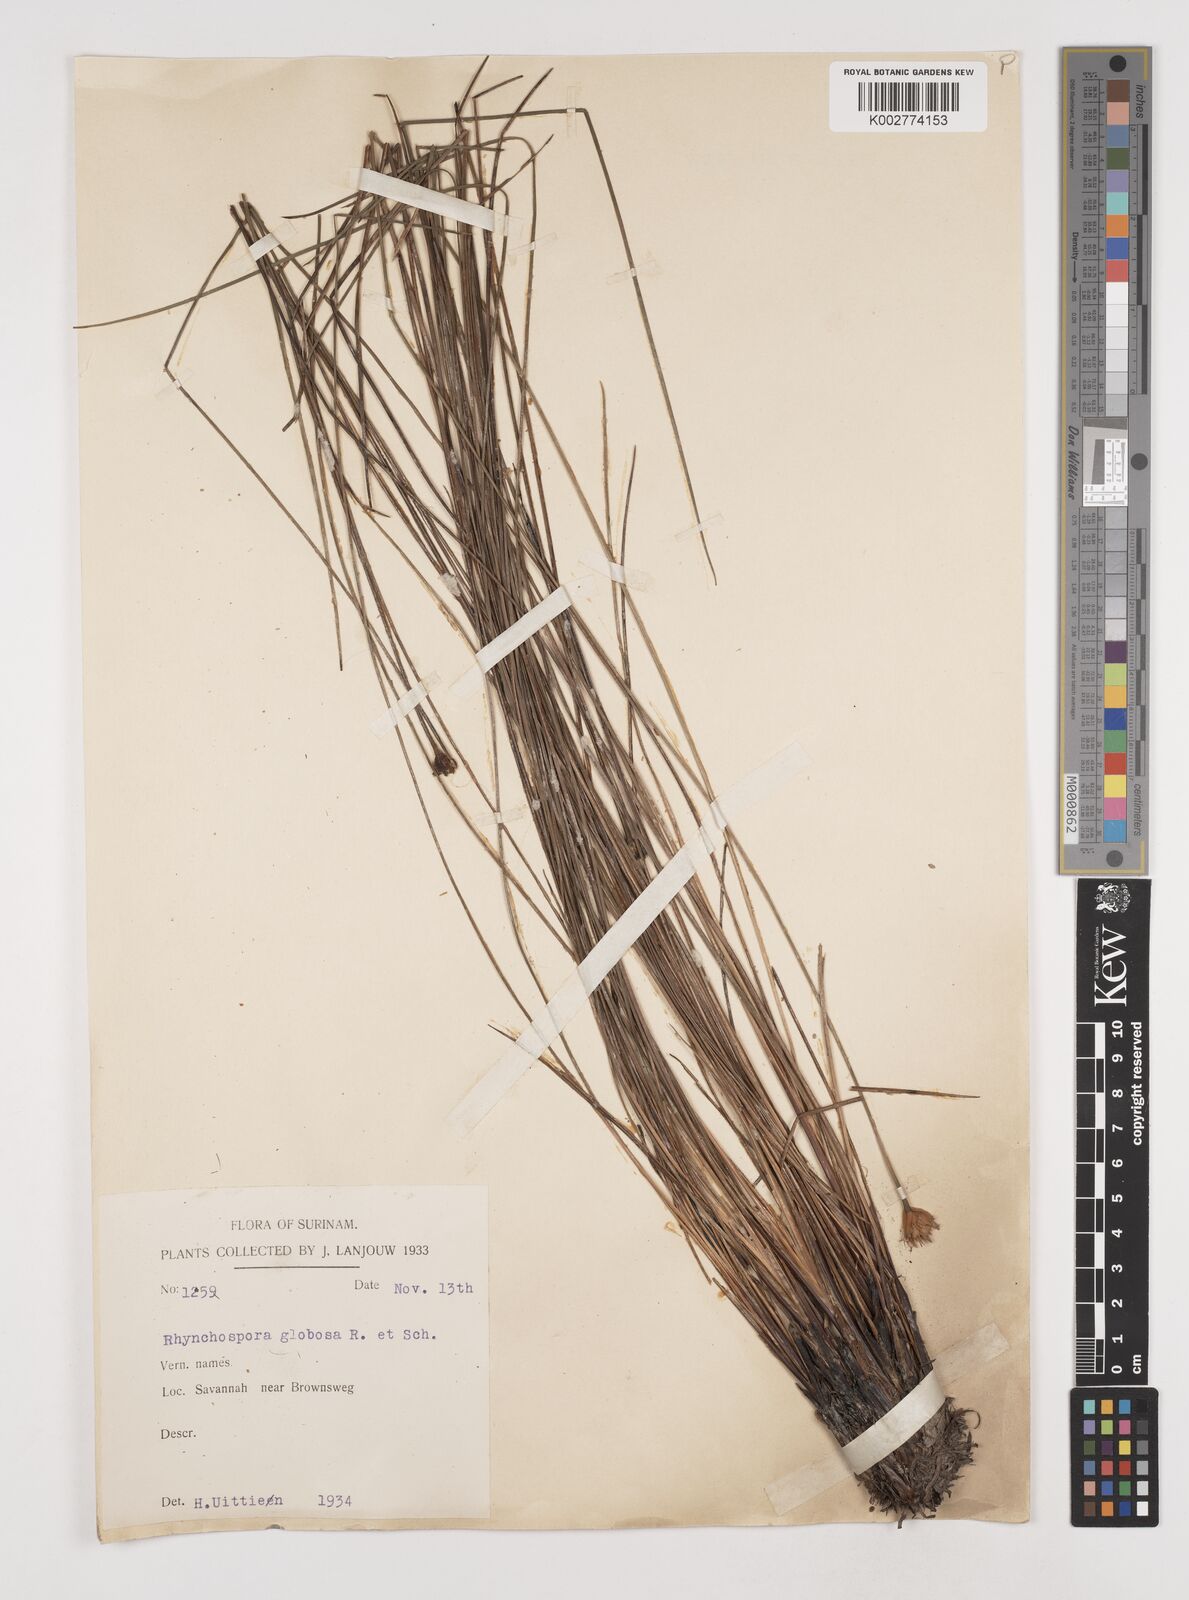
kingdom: Plantae
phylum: Tracheophyta
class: Liliopsida
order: Poales
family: Cyperaceae
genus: Rhynchospora
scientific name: Rhynchospora globosa
